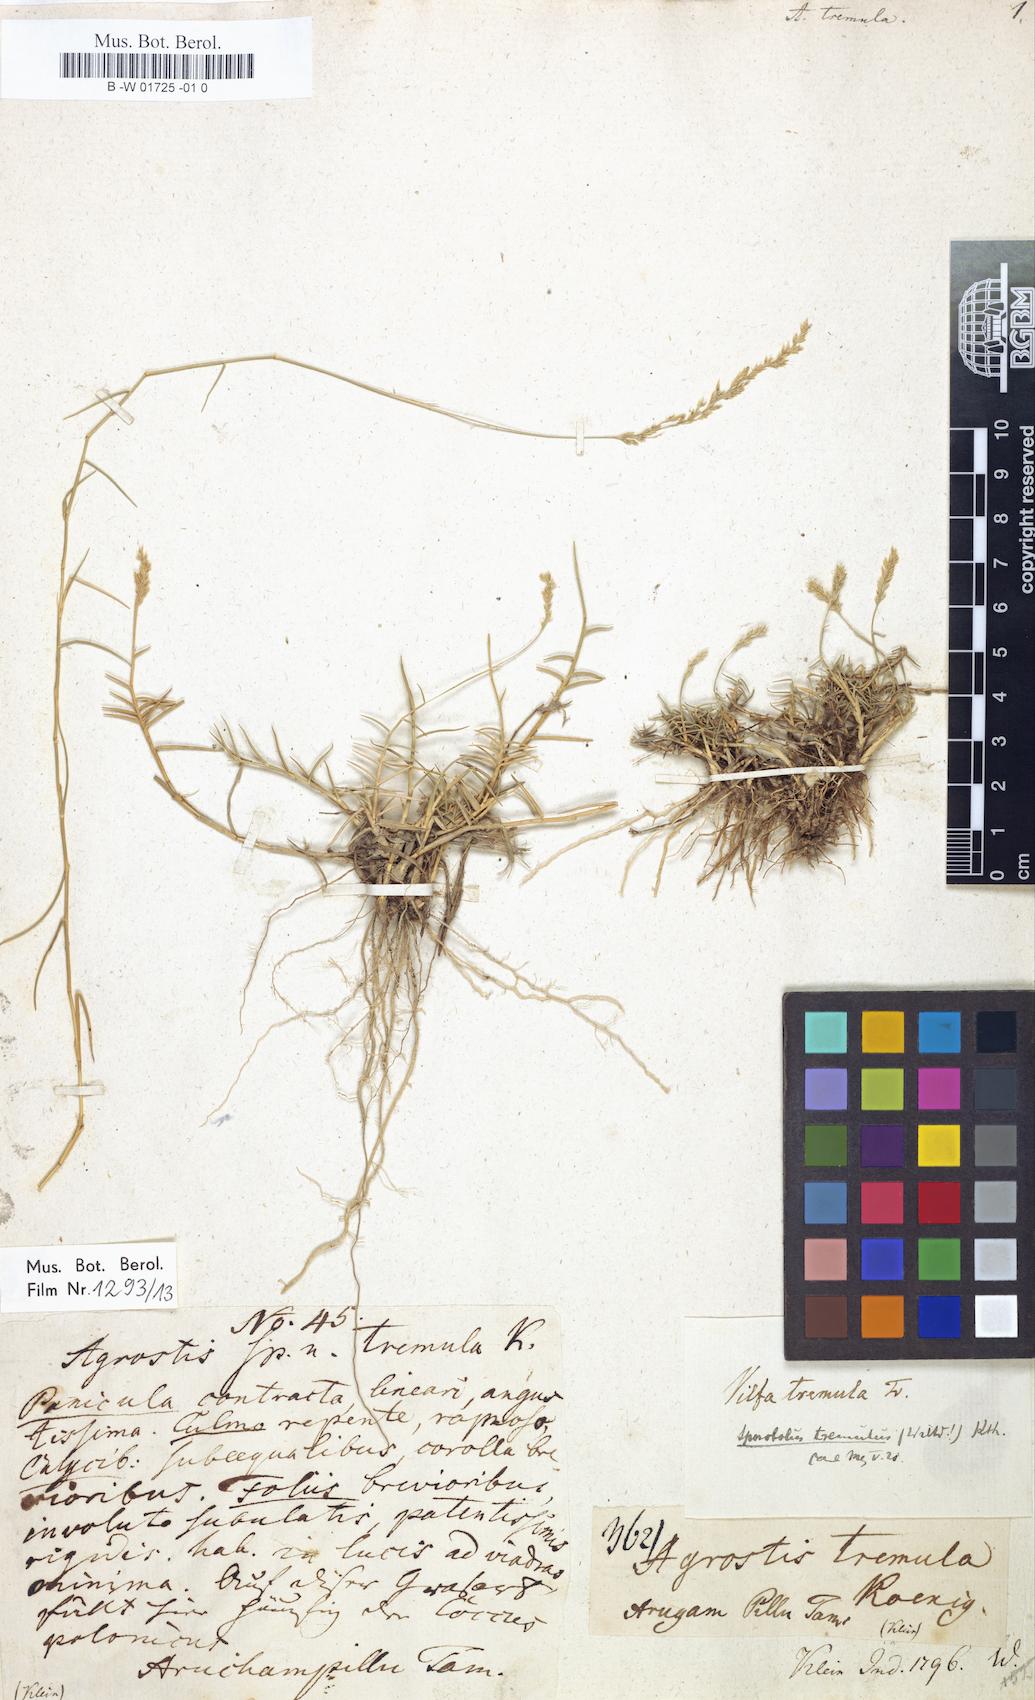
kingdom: Plantae
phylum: Tracheophyta
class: Liliopsida
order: Poales
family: Poaceae
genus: Sporobolus
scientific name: Sporobolus virginicus
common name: Beach dropseed
